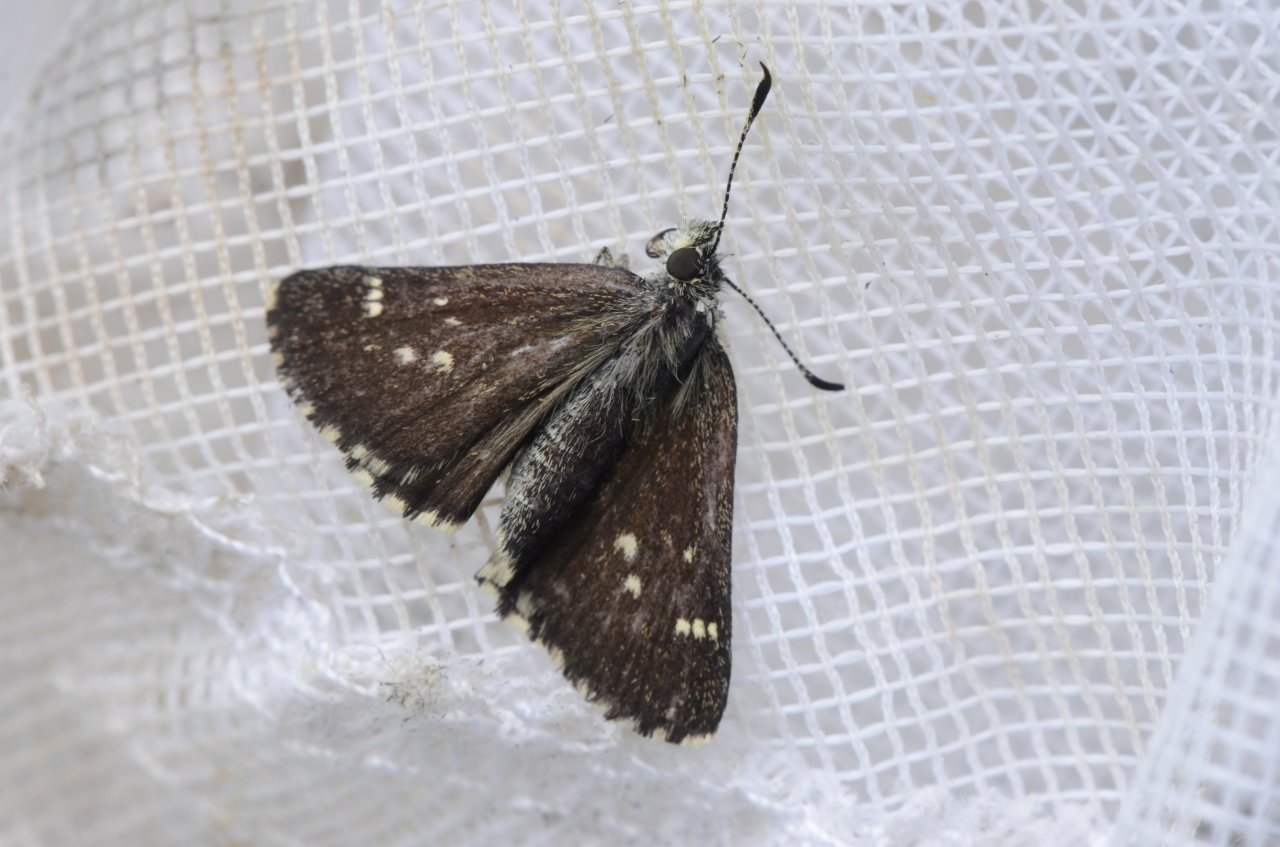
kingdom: Animalia
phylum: Arthropoda
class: Insecta
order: Lepidoptera
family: Hesperiidae
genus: Mastor
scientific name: Mastor hegon
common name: Pepper and Salt Skipper
